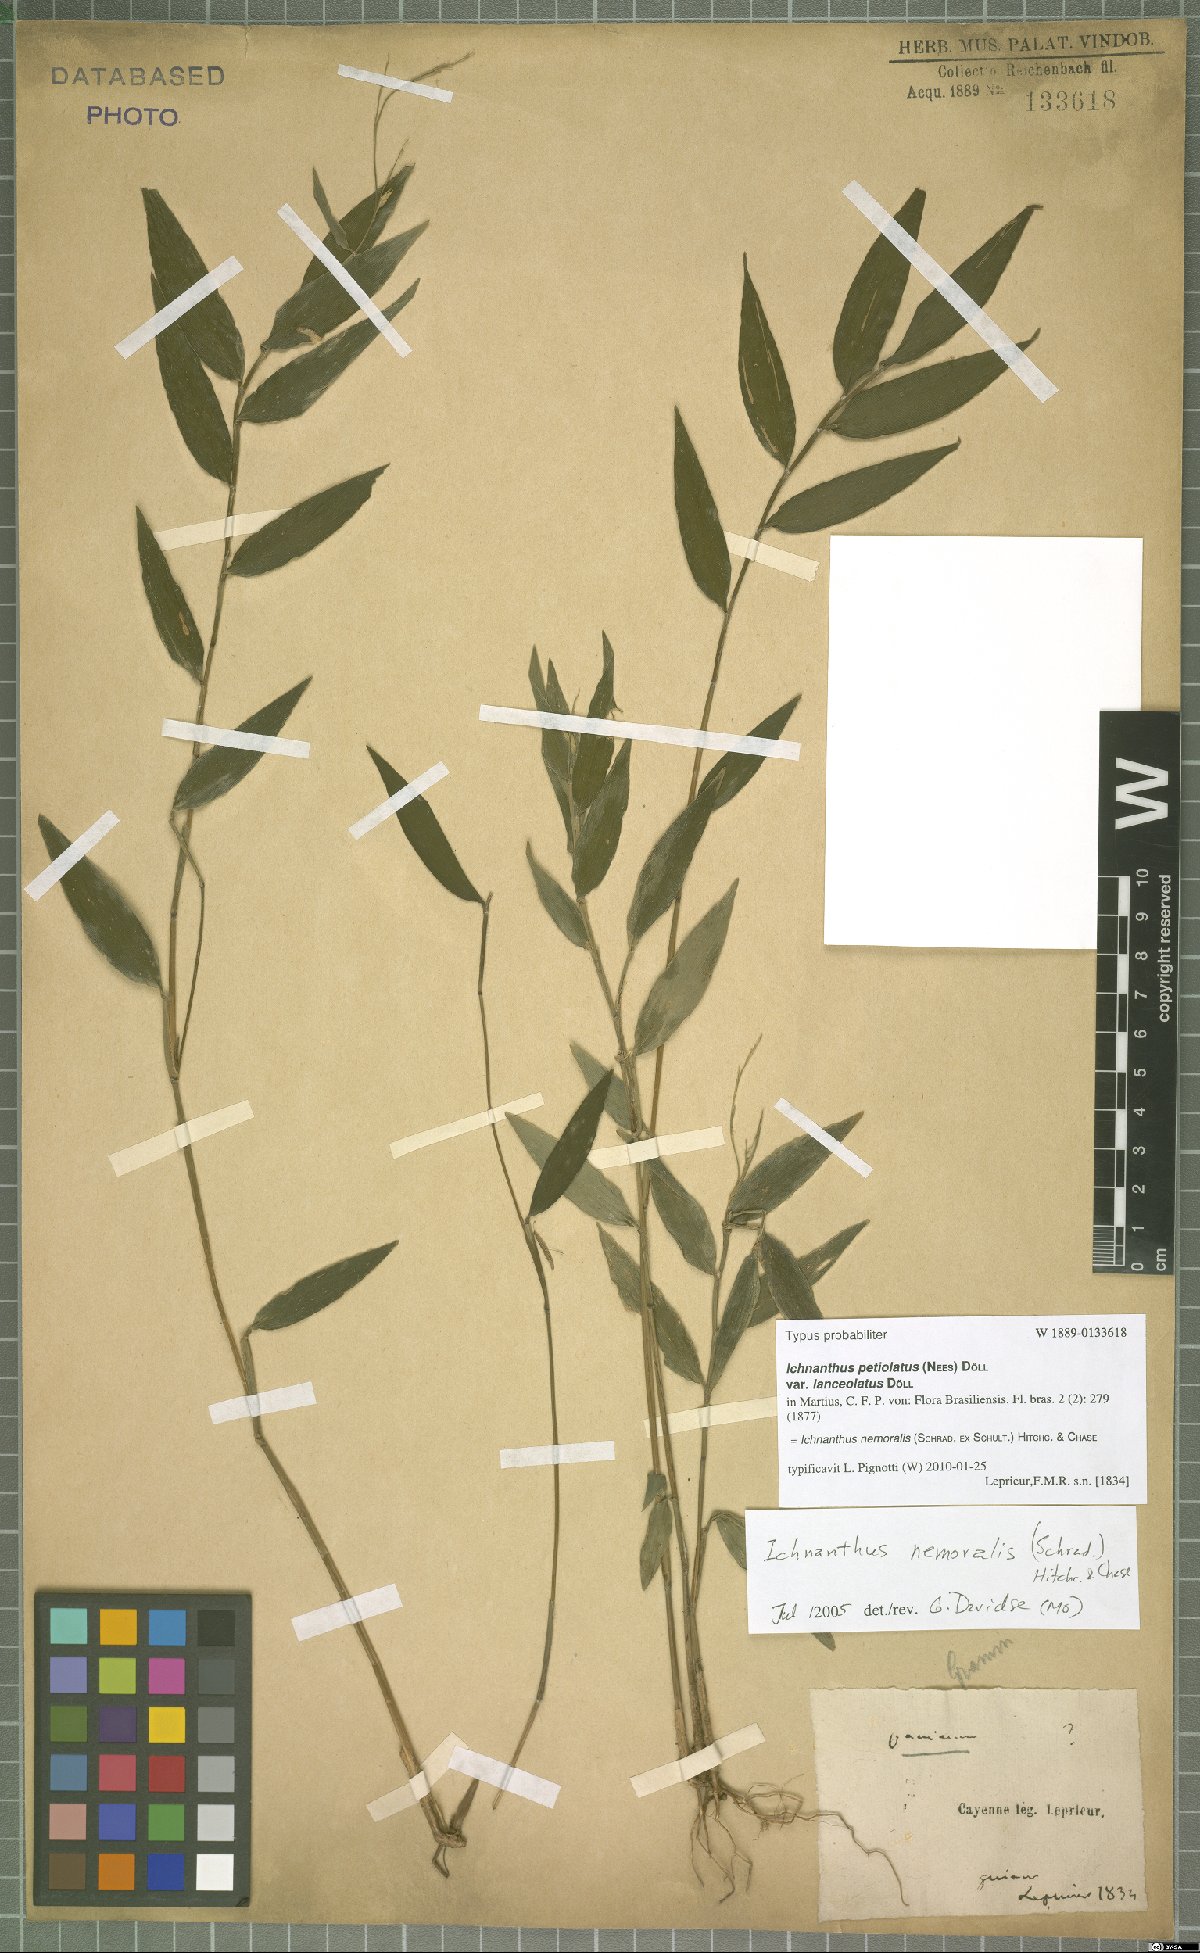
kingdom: Plantae
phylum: Tracheophyta
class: Liliopsida
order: Poales
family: Poaceae
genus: Ichnanthus
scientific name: Ichnanthus nemoralis
